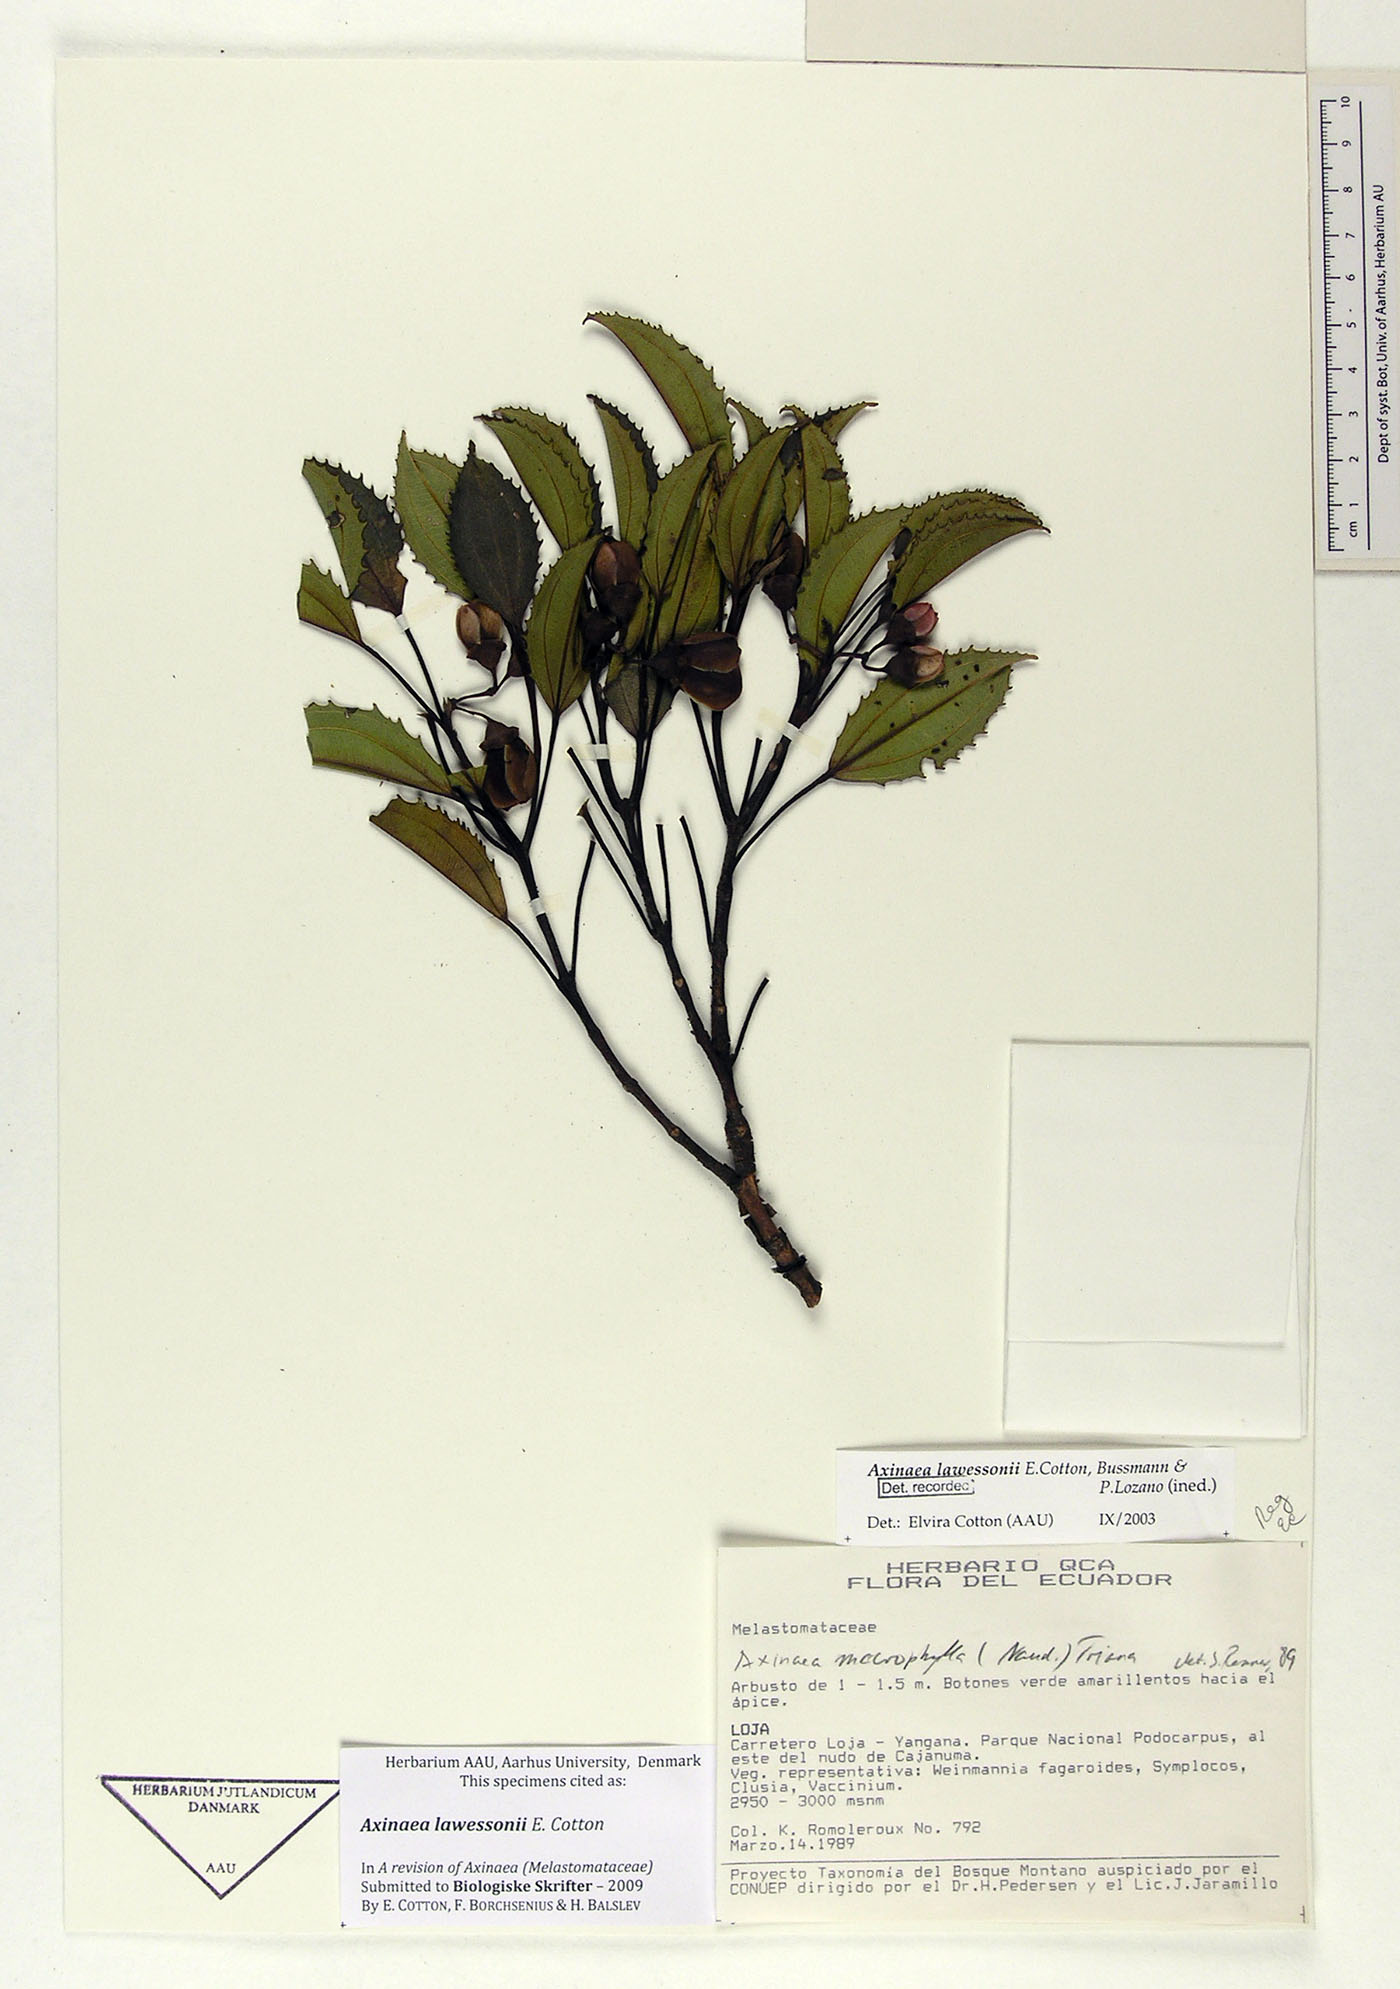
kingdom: Plantae
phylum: Tracheophyta
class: Magnoliopsida
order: Myrtales
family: Melastomataceae
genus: Axinaea
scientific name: Axinaea lawessonii
